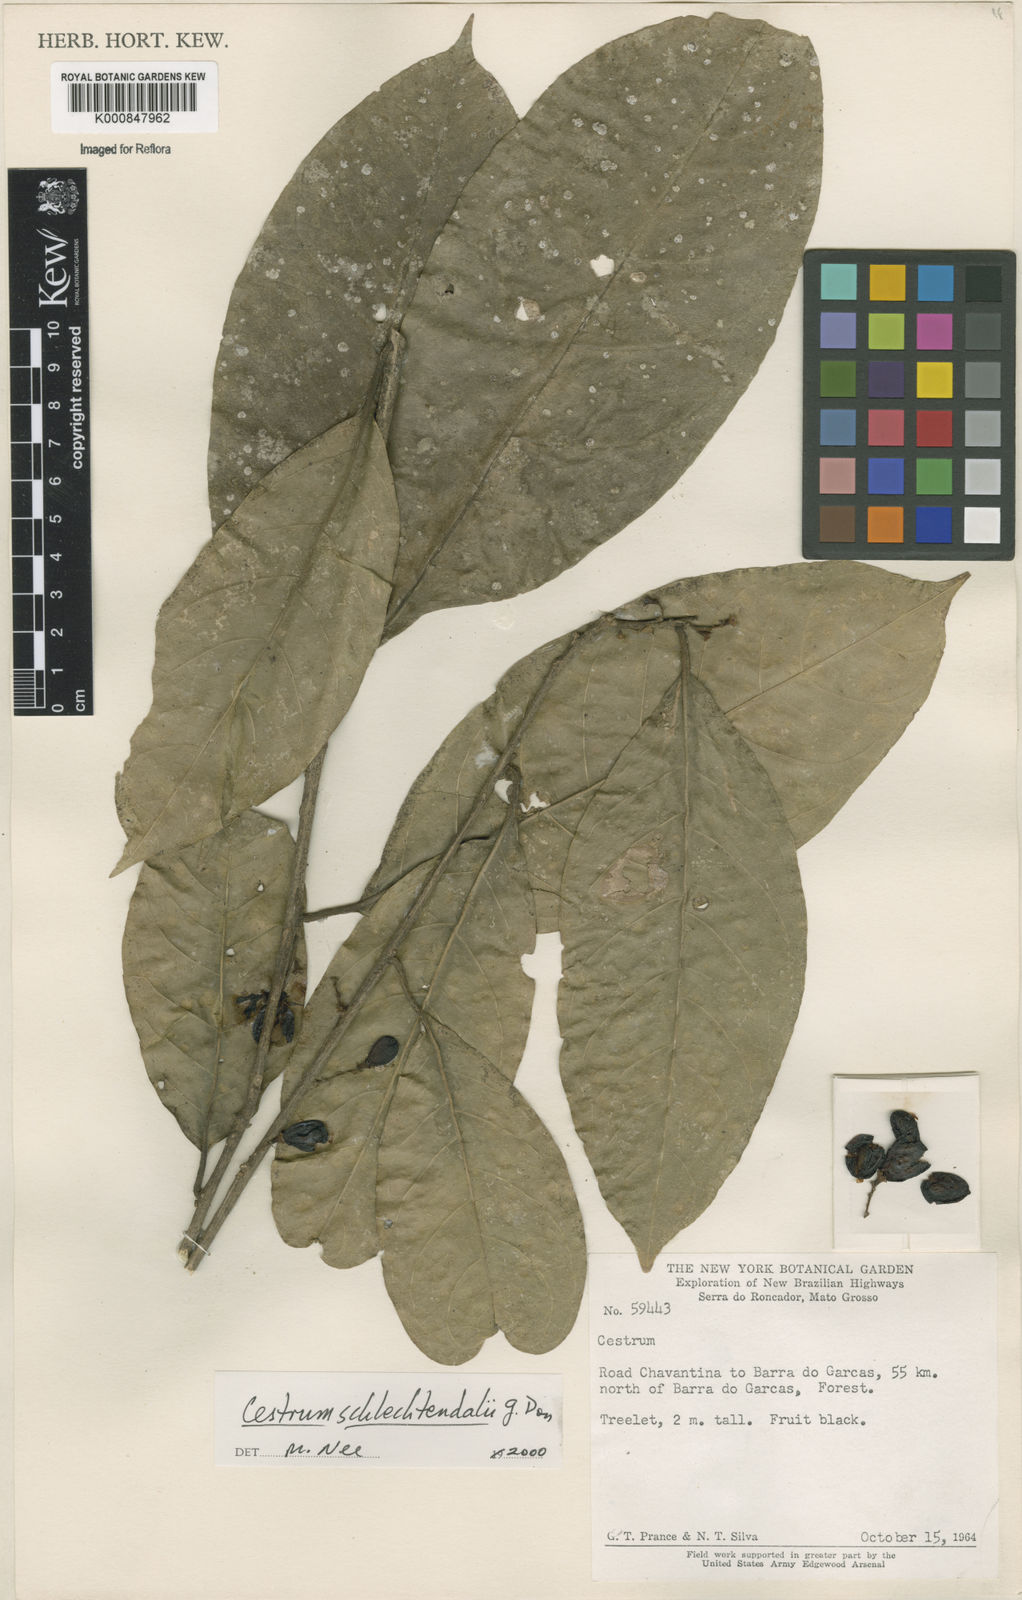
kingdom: Plantae
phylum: Tracheophyta
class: Magnoliopsida
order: Solanales
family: Solanaceae
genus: Cestrum
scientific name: Cestrum schlechtendalii
